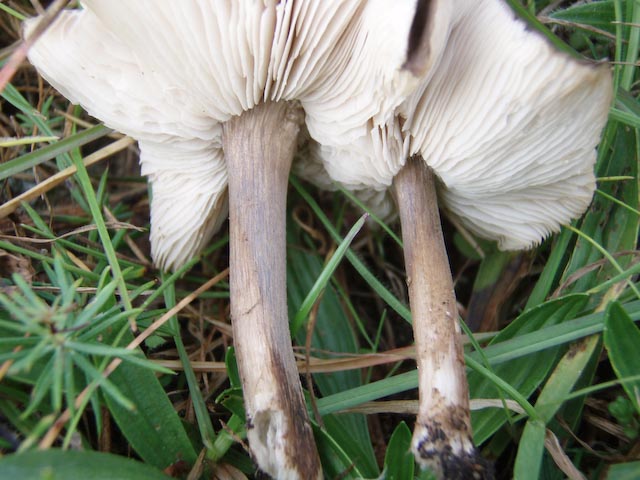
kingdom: Fungi
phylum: Basidiomycota
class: Agaricomycetes
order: Agaricales
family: Tricholomataceae
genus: Melanoleuca
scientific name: Melanoleuca polioleuca
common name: almindelig munkehat
